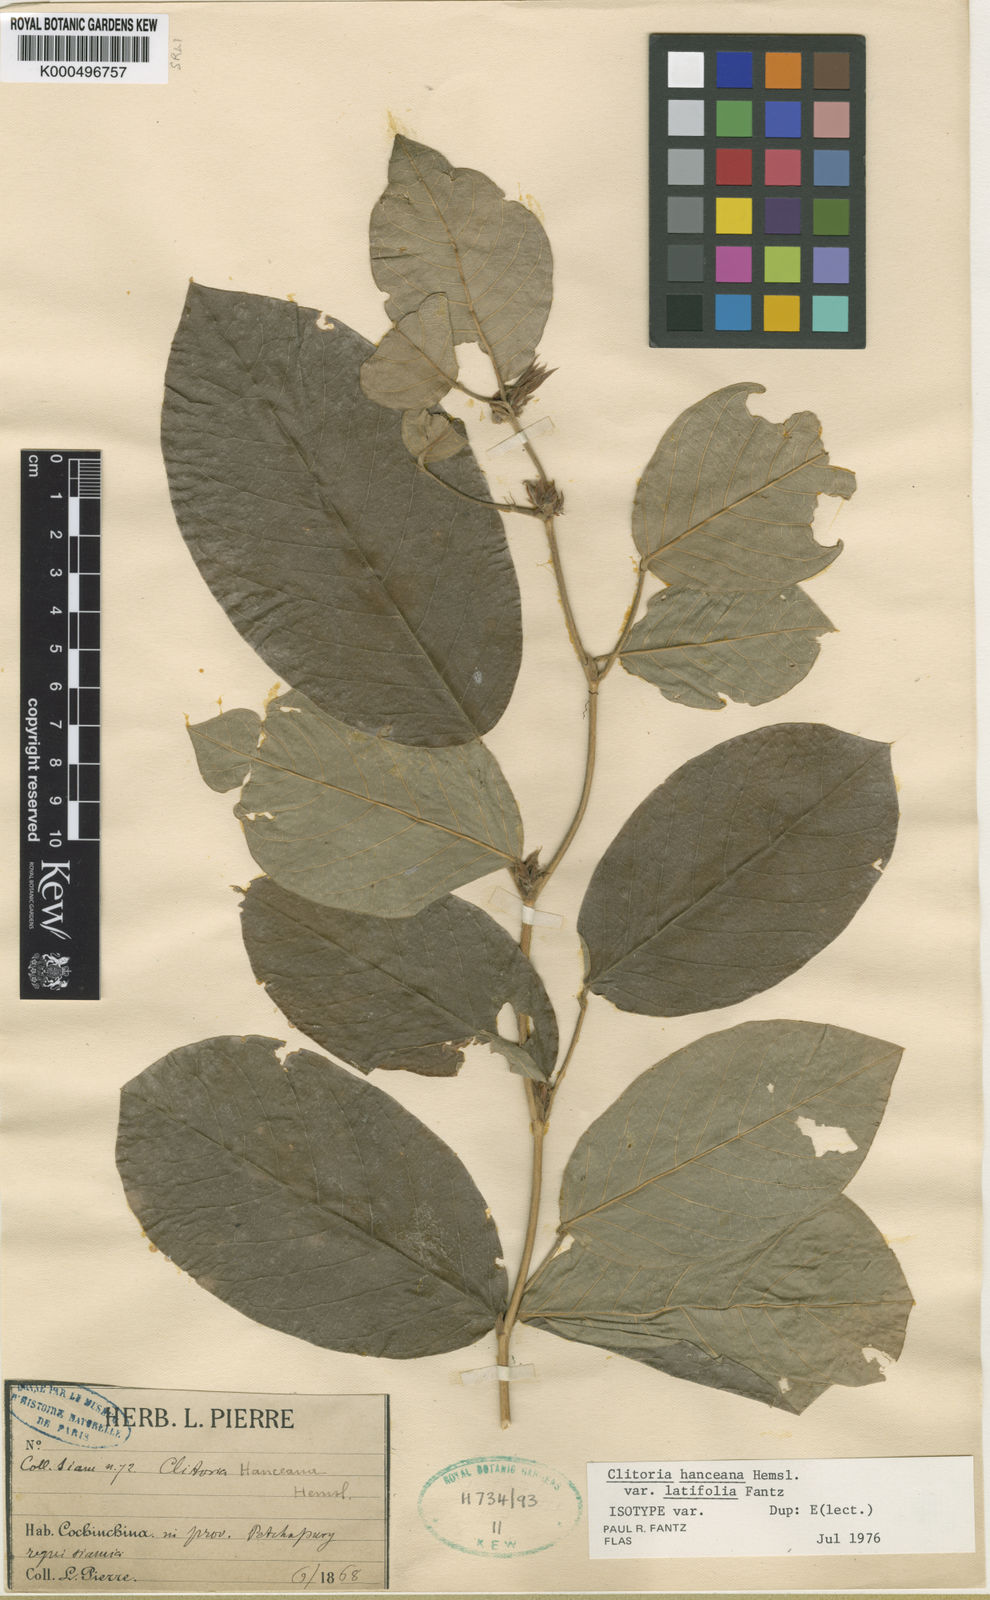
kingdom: Plantae
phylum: Tracheophyta
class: Magnoliopsida
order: Fabales
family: Fabaceae
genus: Clitoria
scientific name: Clitoria hanceana
